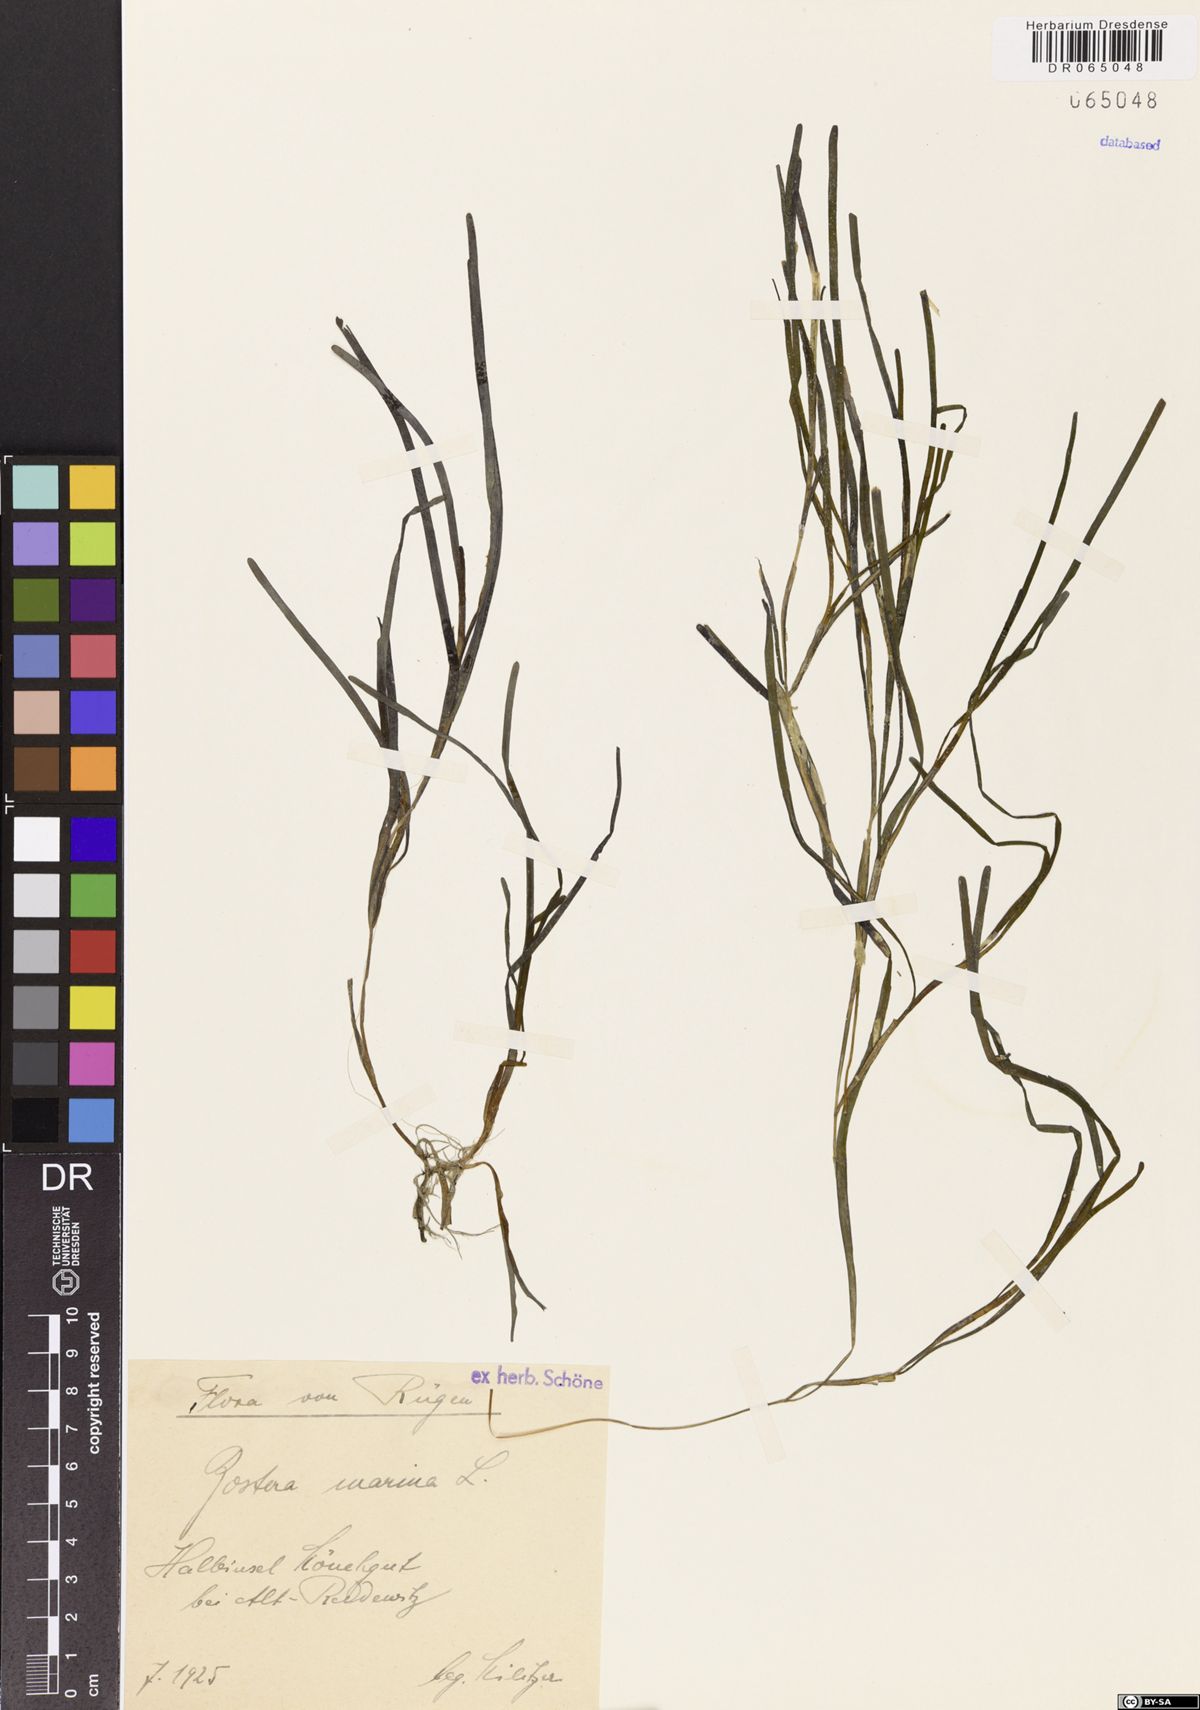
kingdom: Plantae
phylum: Tracheophyta
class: Liliopsida
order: Alismatales
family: Zosteraceae
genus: Zostera
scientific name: Zostera marina
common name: Eelgrass
